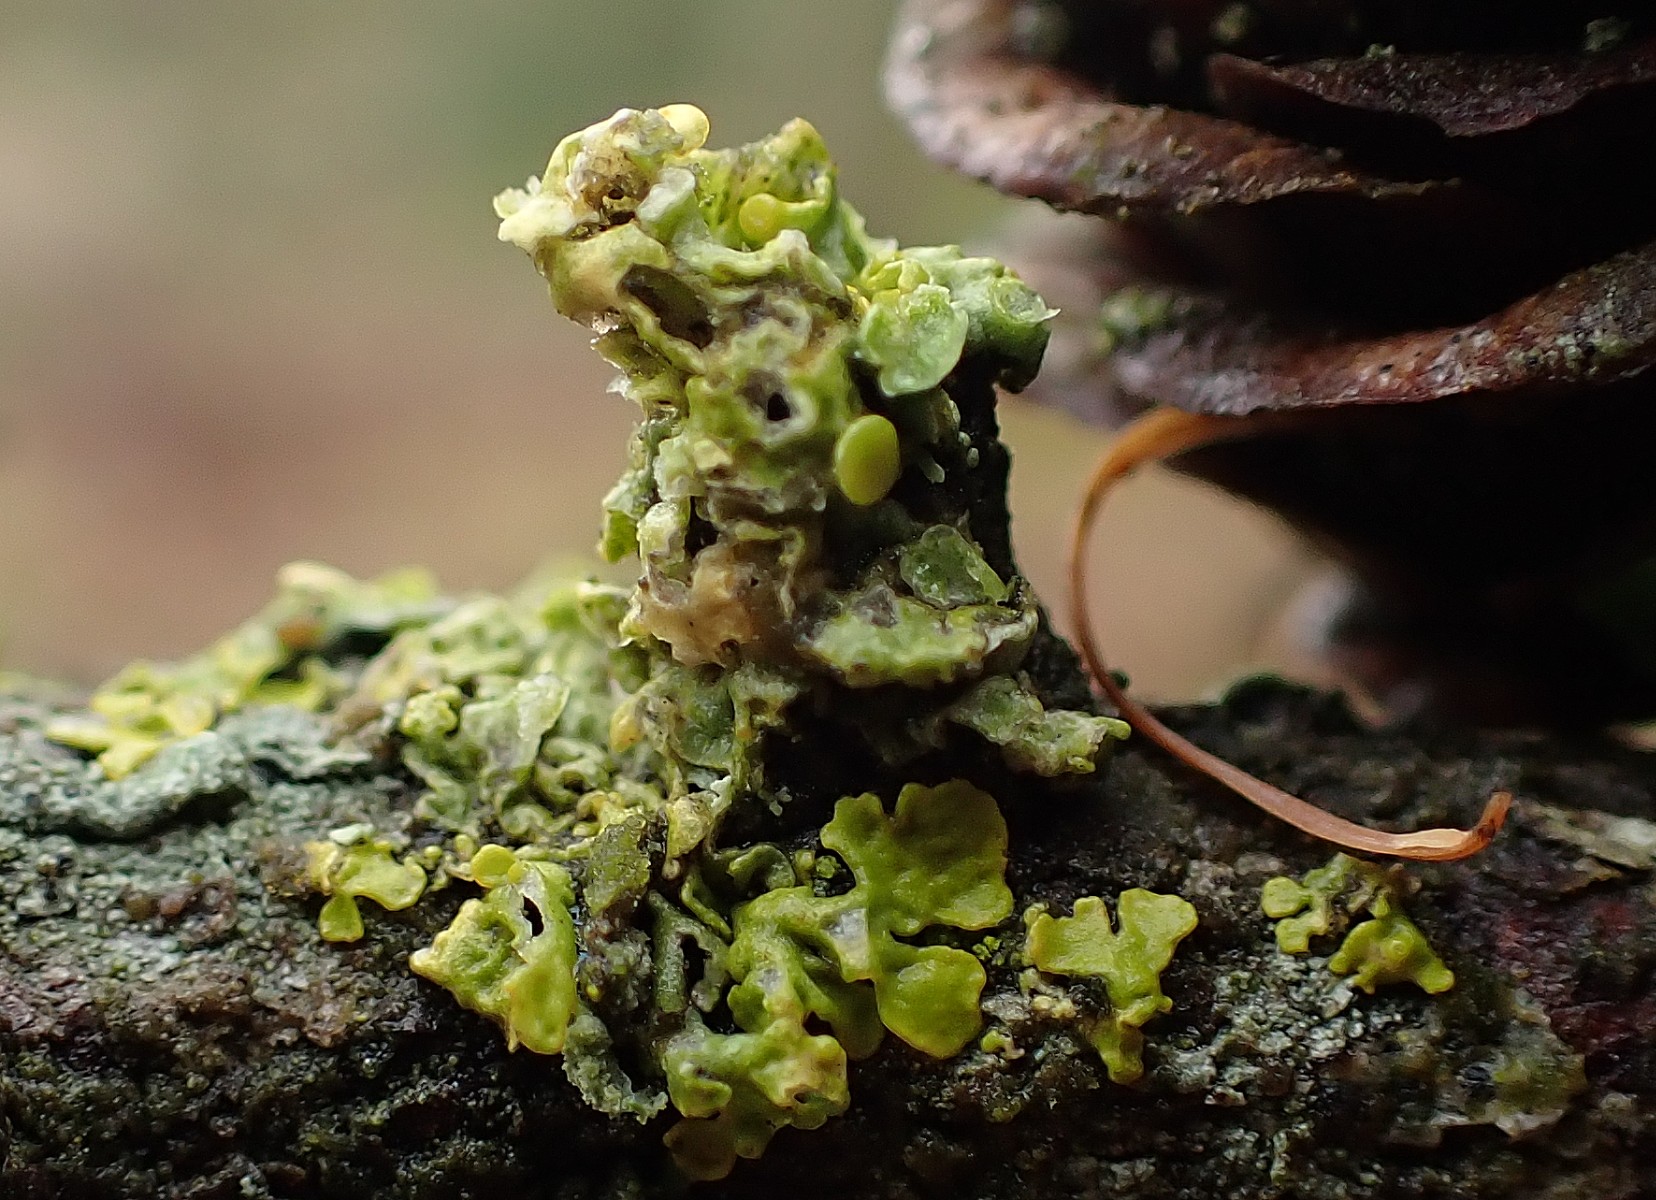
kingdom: Fungi
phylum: Ascomycota
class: Lecanoromycetes
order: Teloschistales
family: Teloschistaceae
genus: Xanthoria
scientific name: Xanthoria parietina
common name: almindelig væggelav
